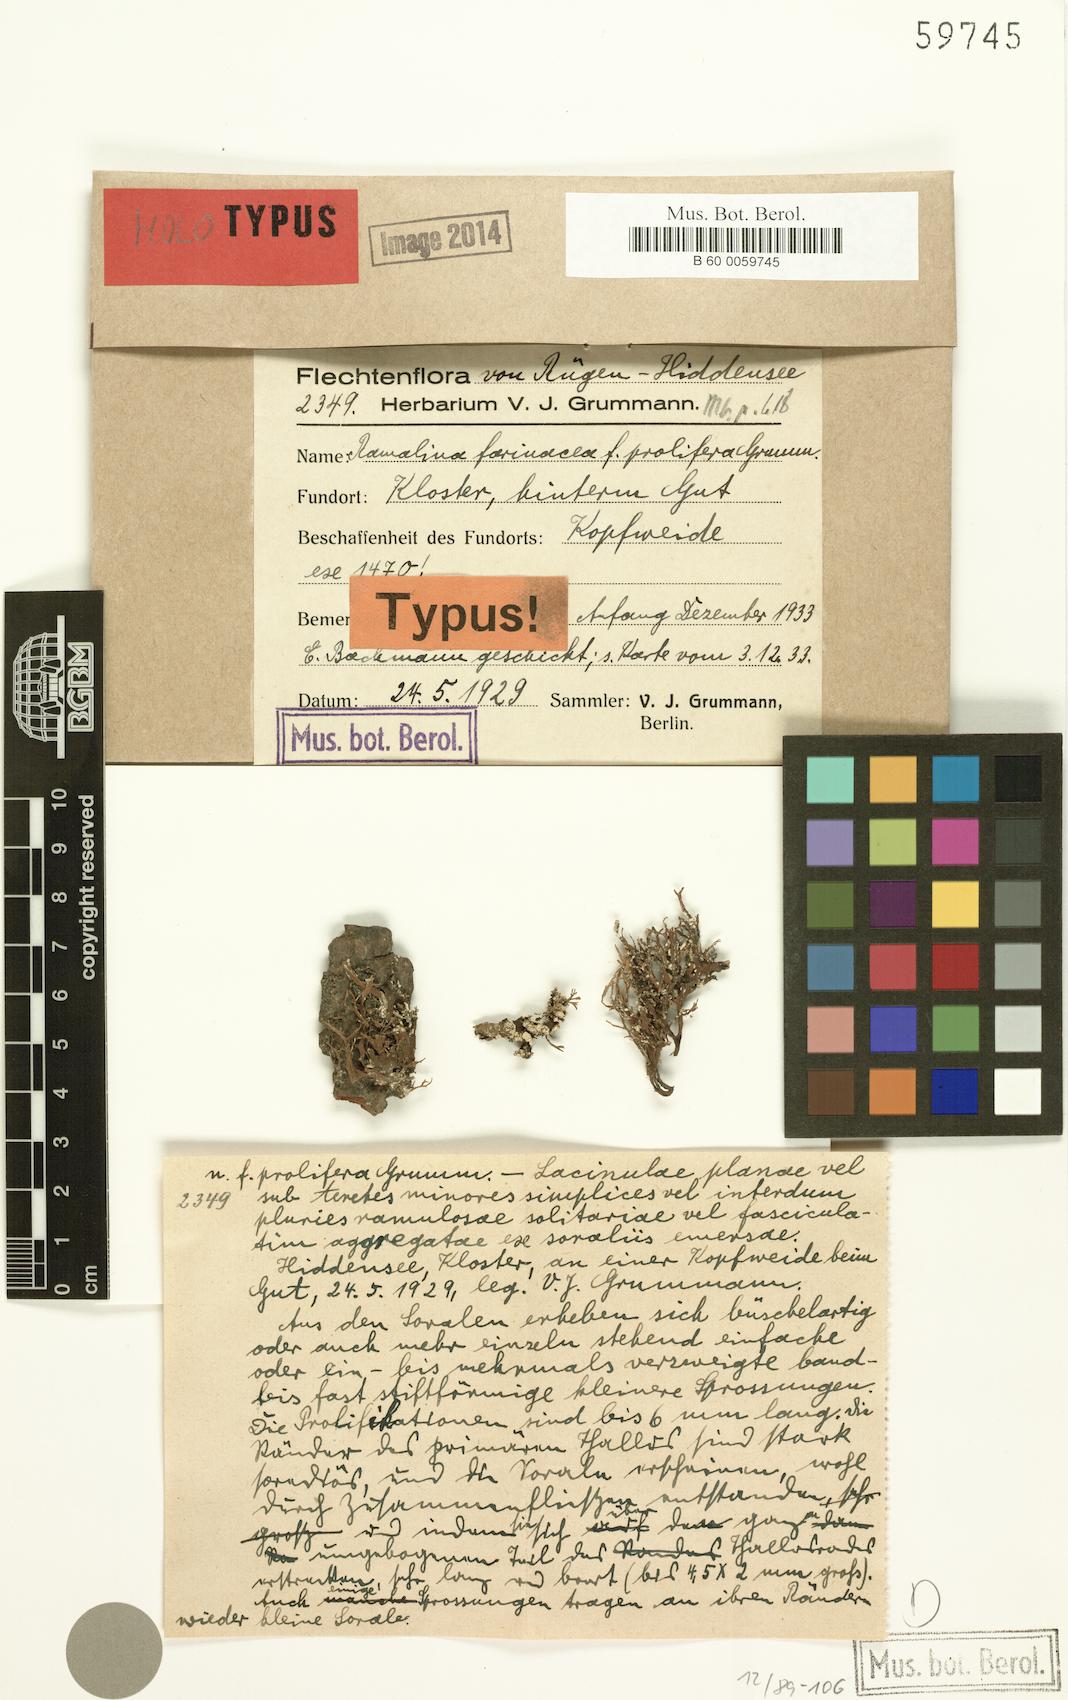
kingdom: Fungi
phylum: Ascomycota
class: Lecanoromycetes
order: Lecanorales
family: Ramalinaceae
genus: Ramalina
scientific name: Ramalina farinacea
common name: Farinose cartilage lichen
